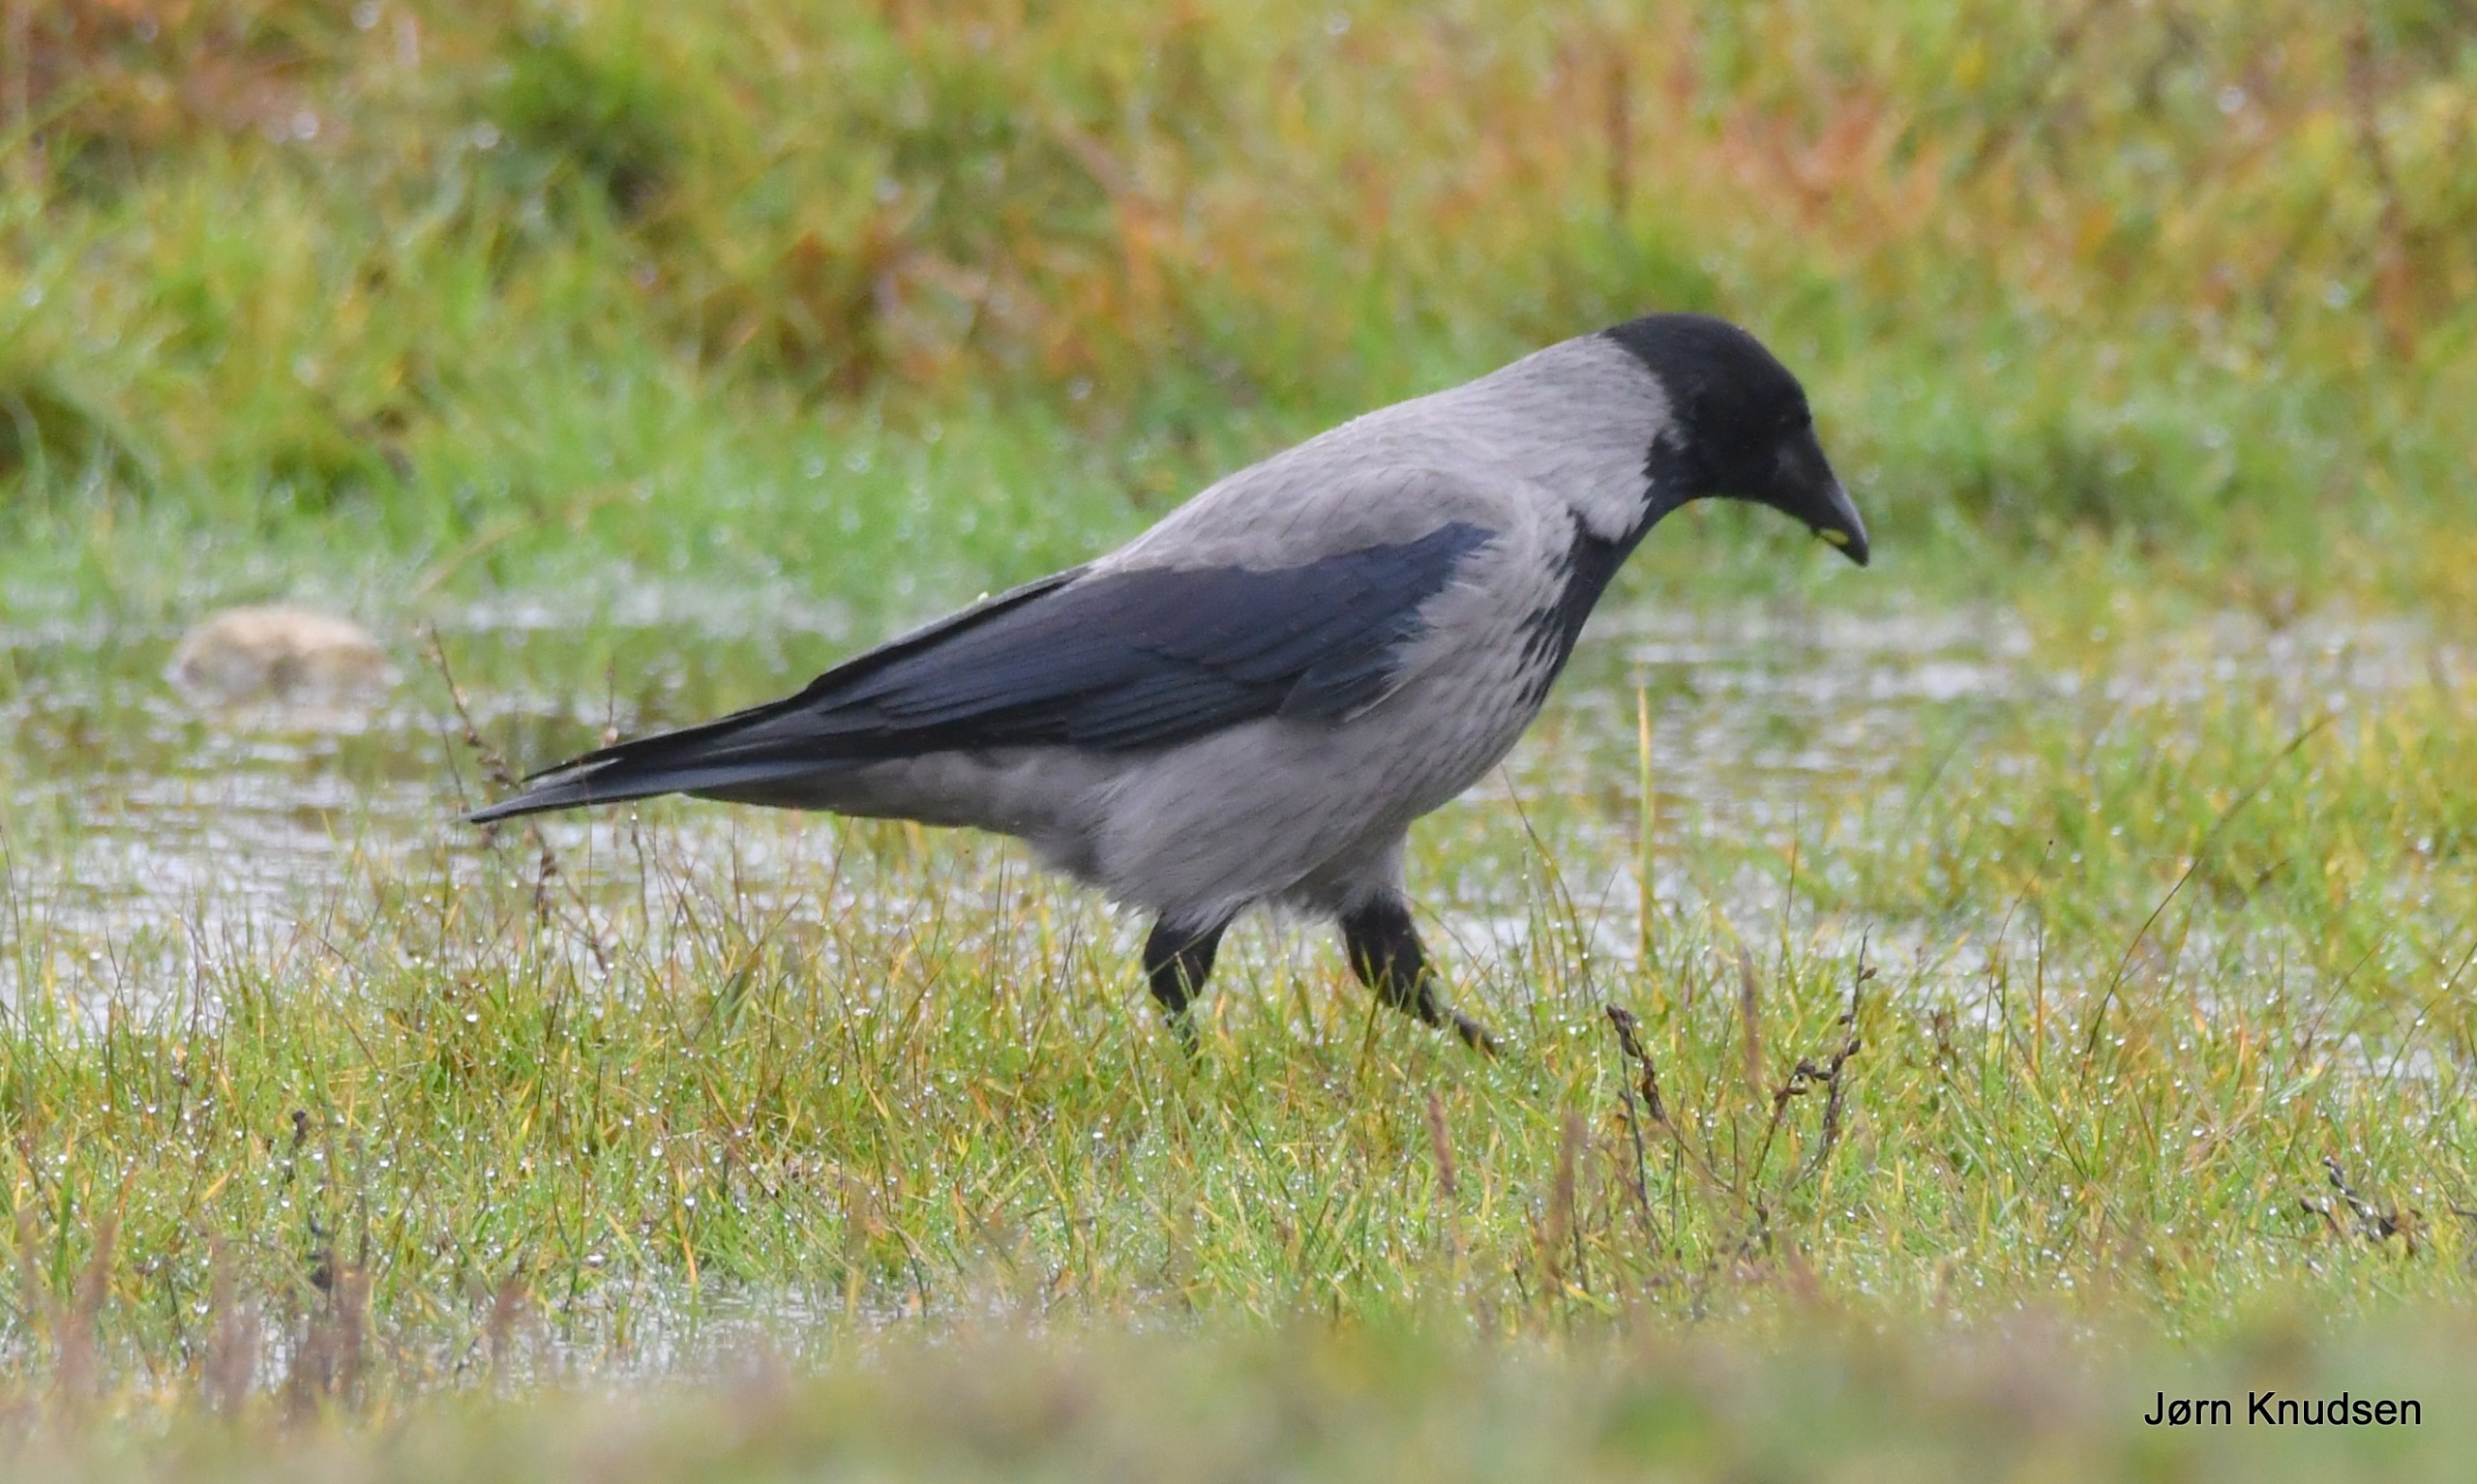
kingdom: Animalia
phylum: Chordata
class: Aves
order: Passeriformes
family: Corvidae
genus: Corvus
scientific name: Corvus cornix
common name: Gråkrage
